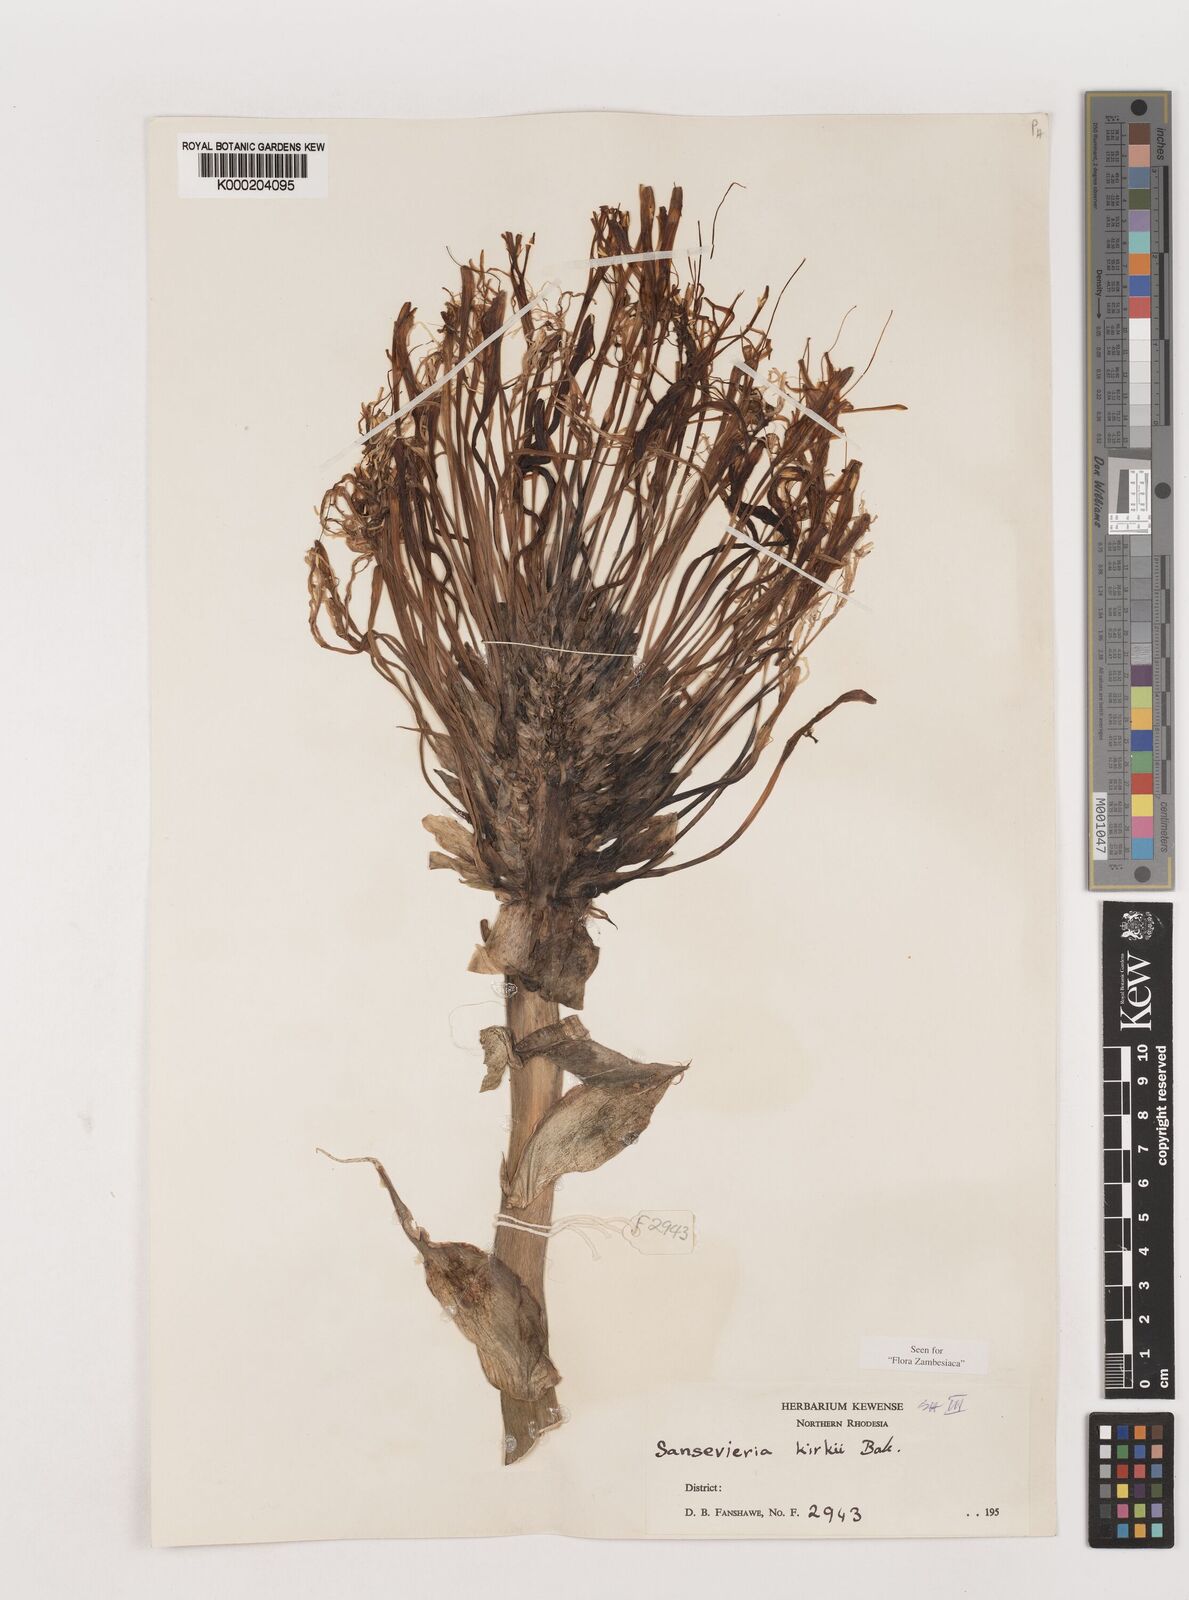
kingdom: Plantae
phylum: Tracheophyta
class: Liliopsida
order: Asparagales
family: Asparagaceae
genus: Dracaena
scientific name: Dracaena pethera
